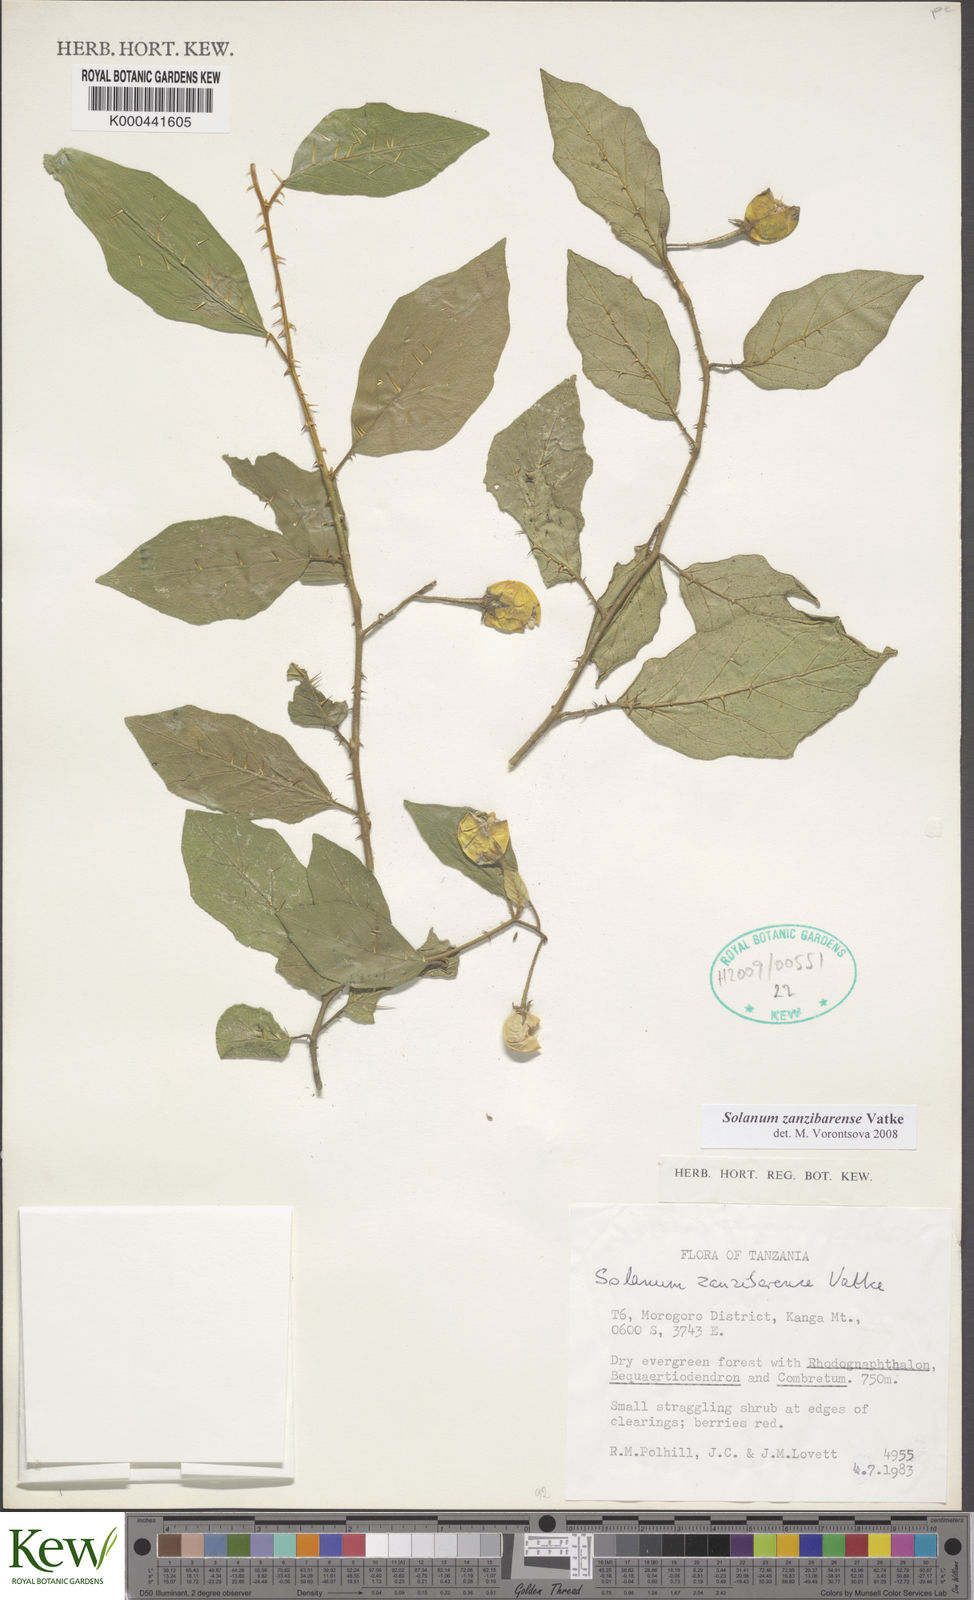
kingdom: Plantae
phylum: Tracheophyta
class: Magnoliopsida
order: Solanales
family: Solanaceae
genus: Solanum
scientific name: Solanum stipitatostellatum
